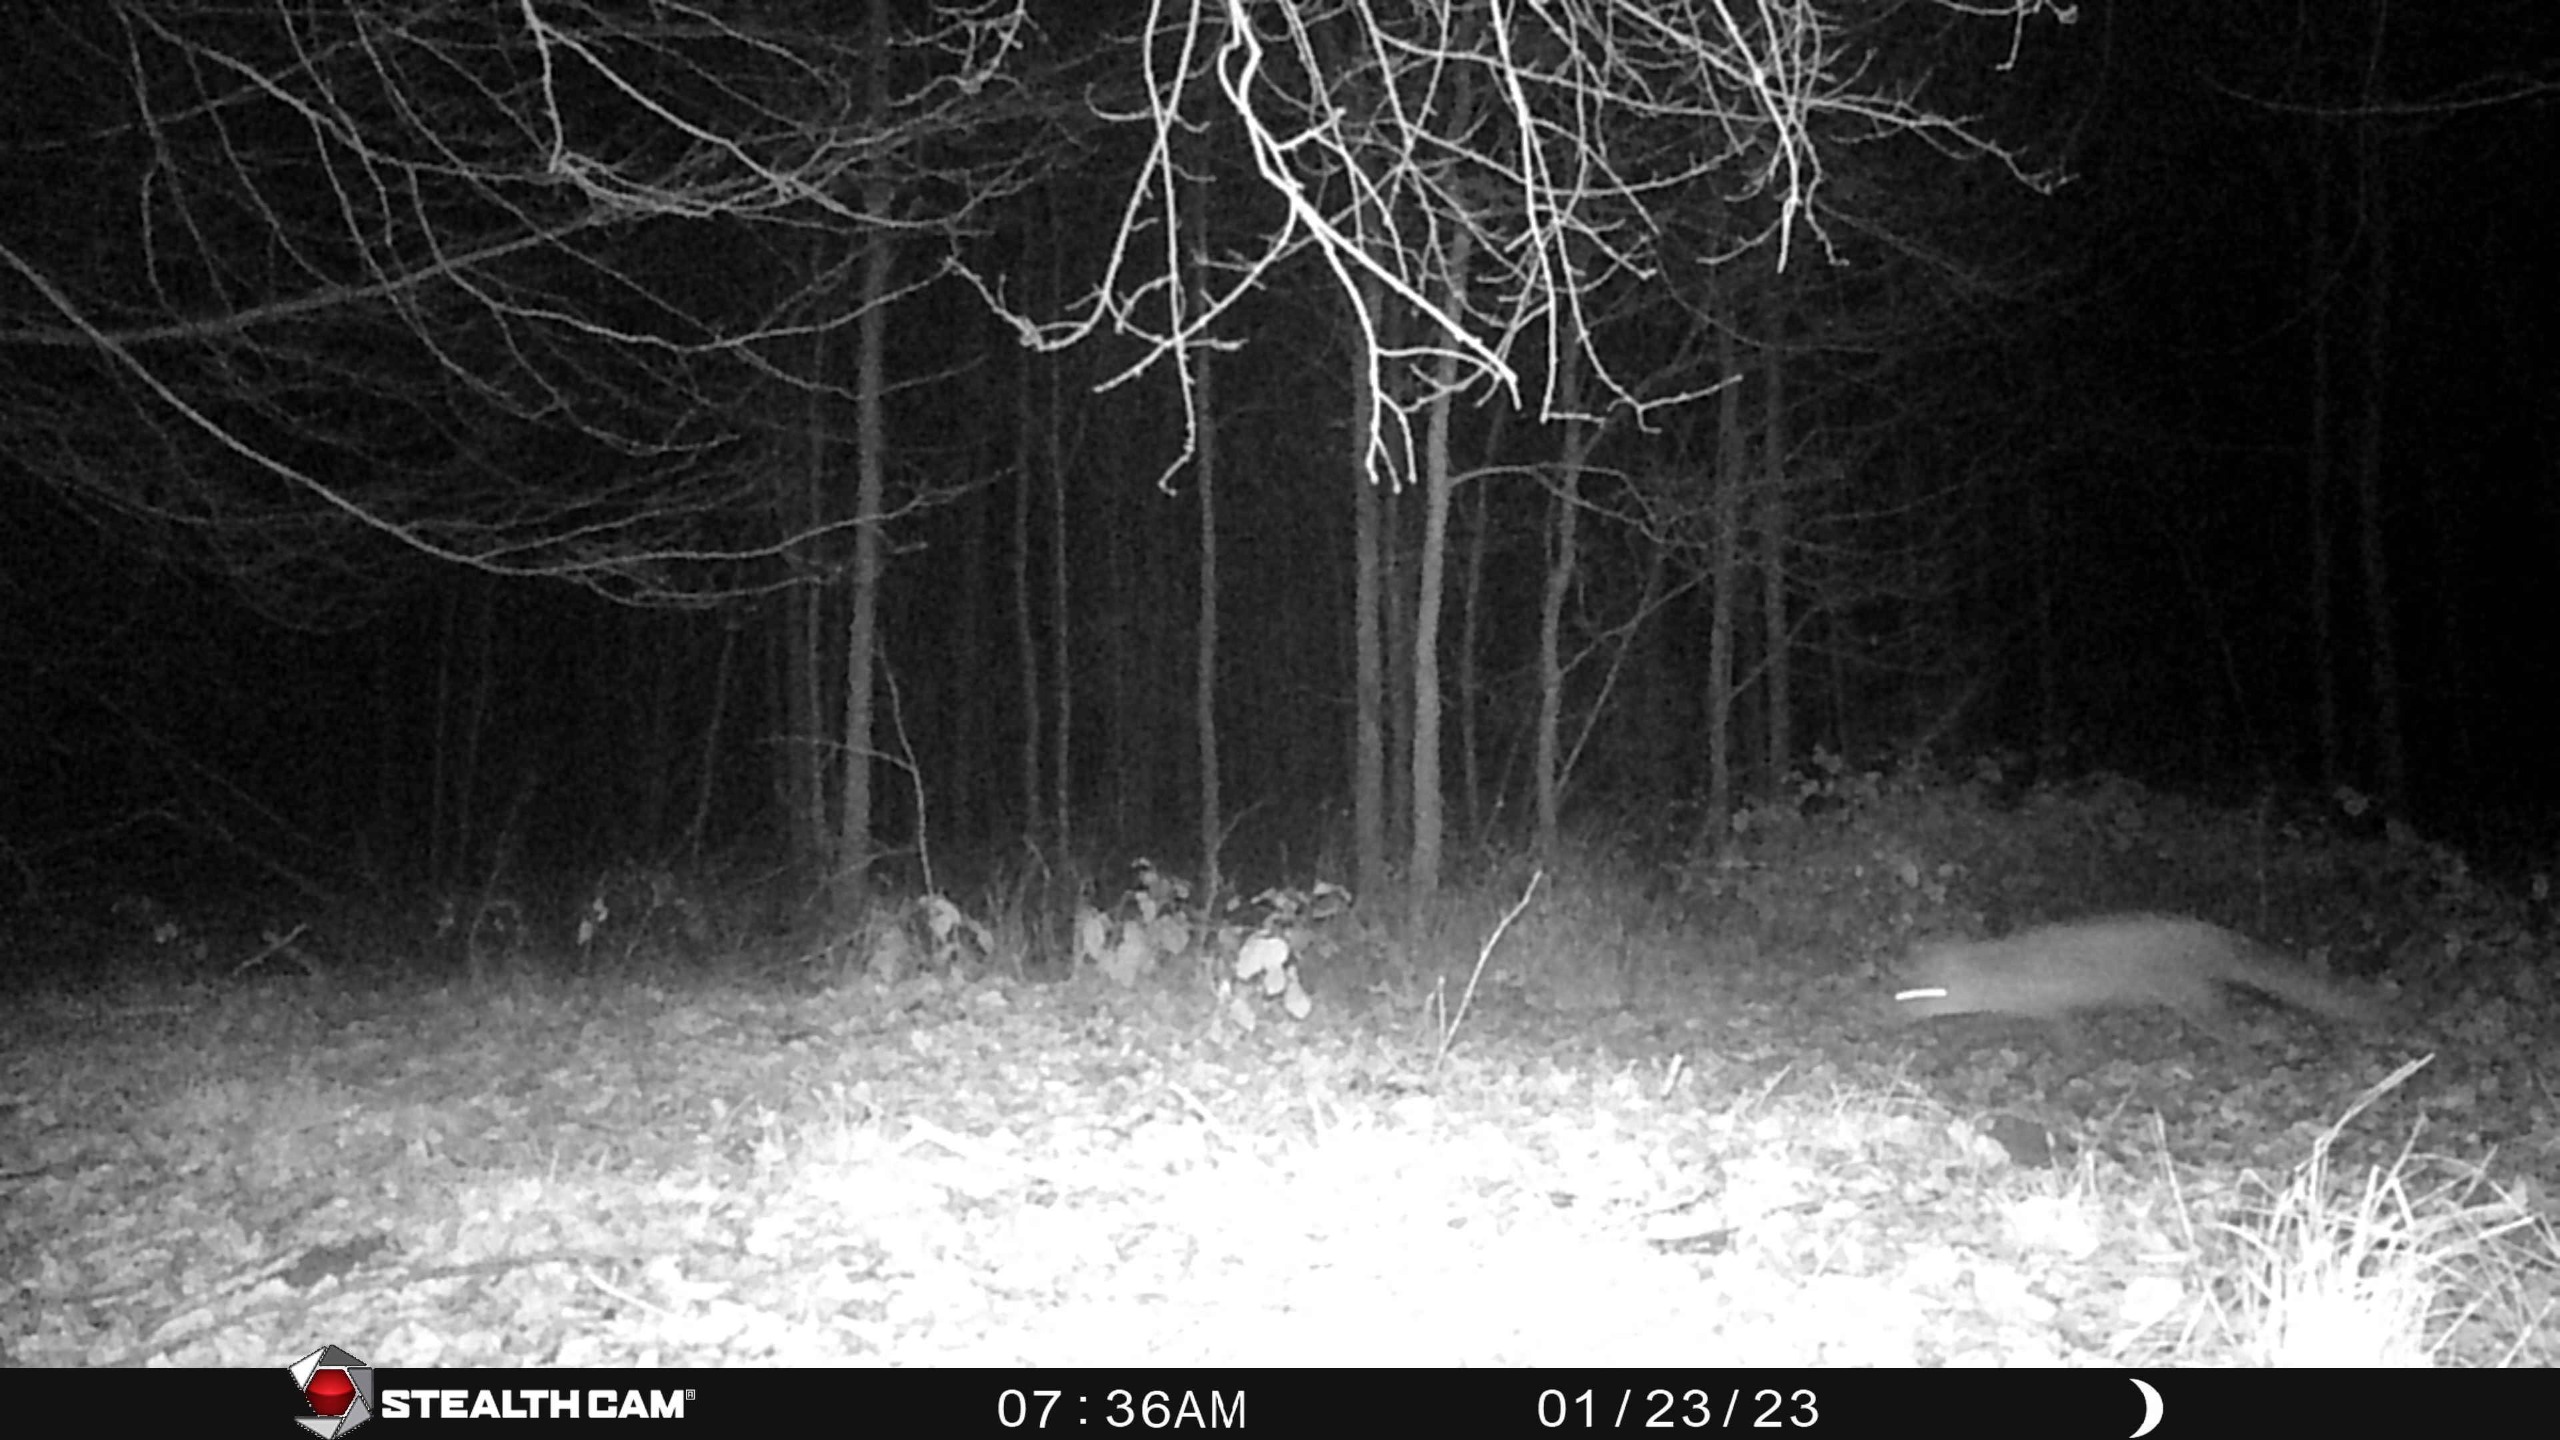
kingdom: Animalia
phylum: Chordata
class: Mammalia
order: Carnivora
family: Canidae
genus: Vulpes
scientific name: Vulpes vulpes
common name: Ræv
